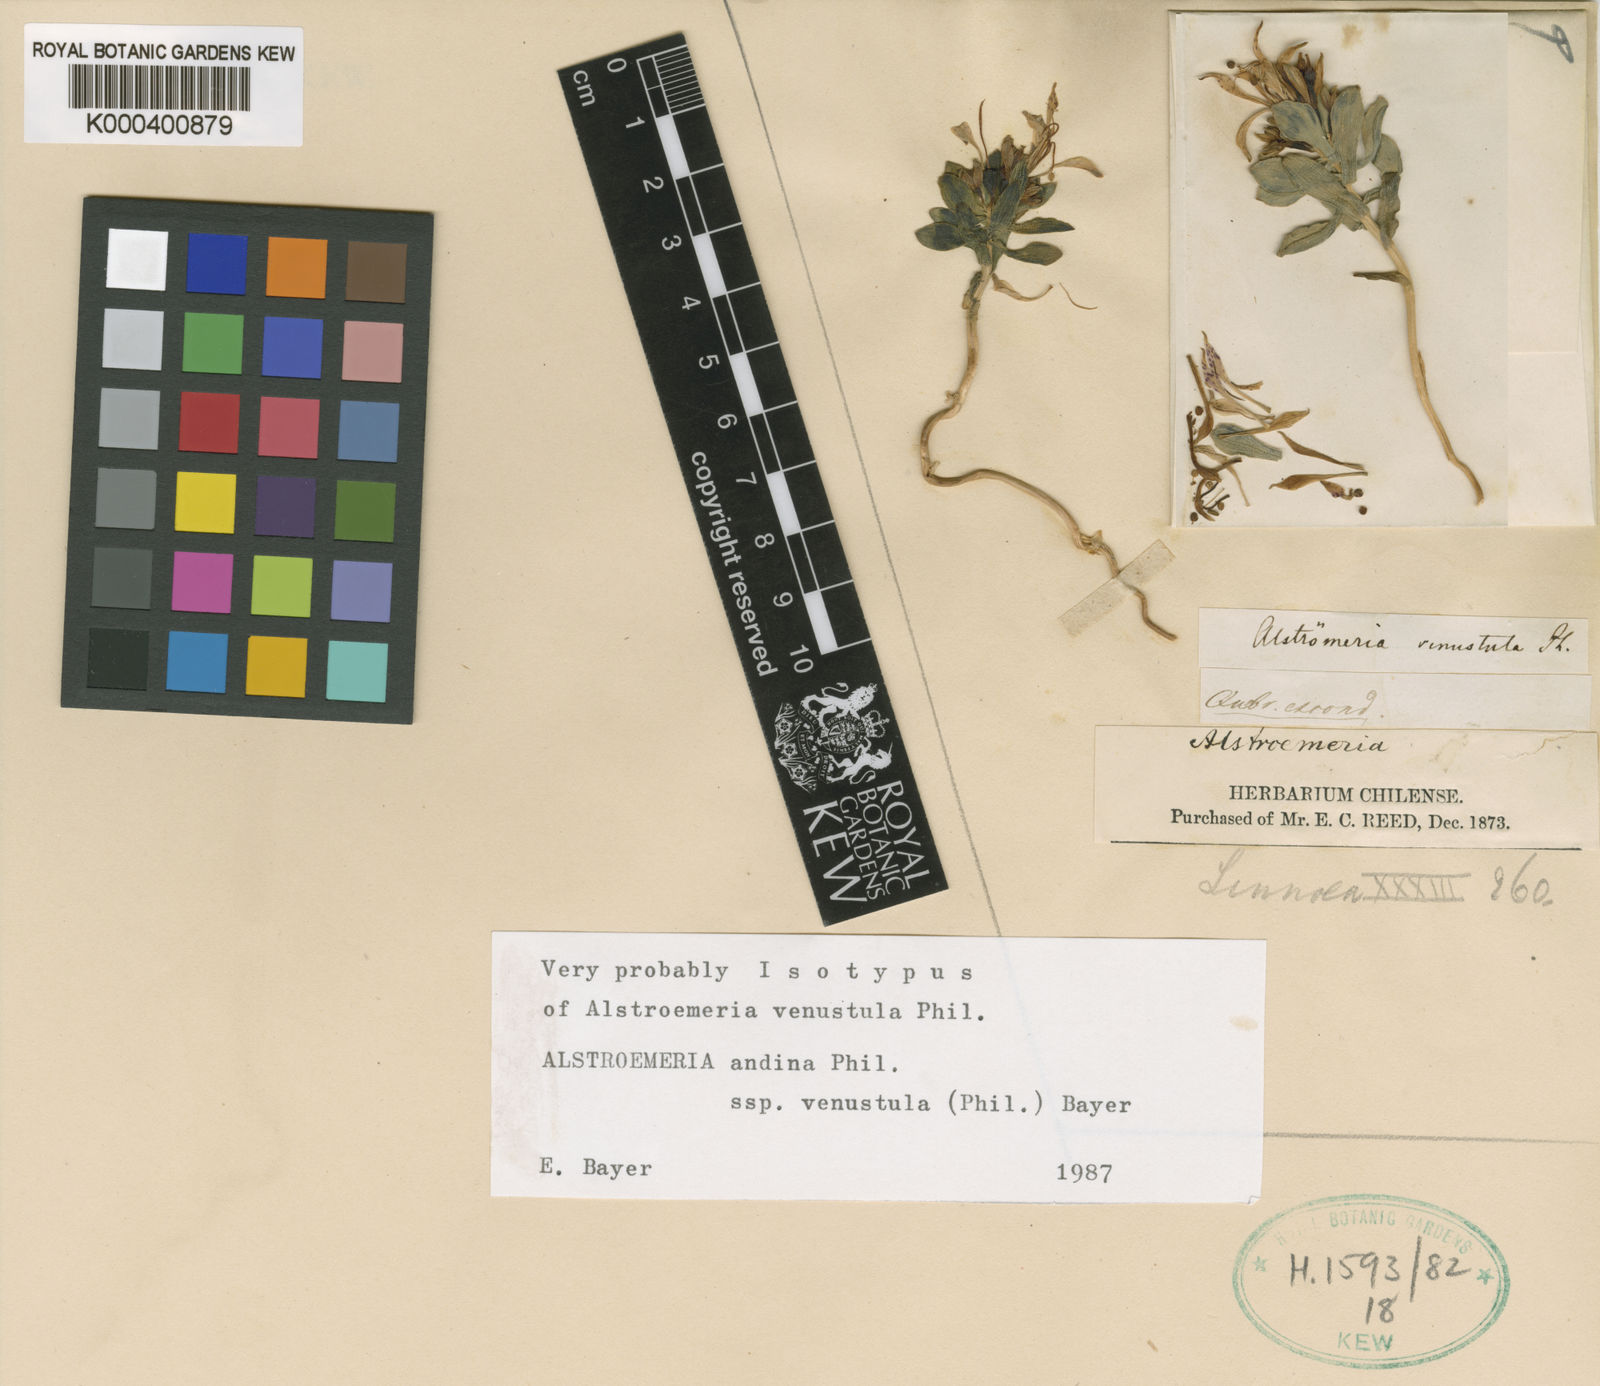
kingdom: Plantae
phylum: Tracheophyta
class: Liliopsida
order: Liliales
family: Alstroemeriaceae
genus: Alstroemeria
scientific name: Alstroemeria andina
